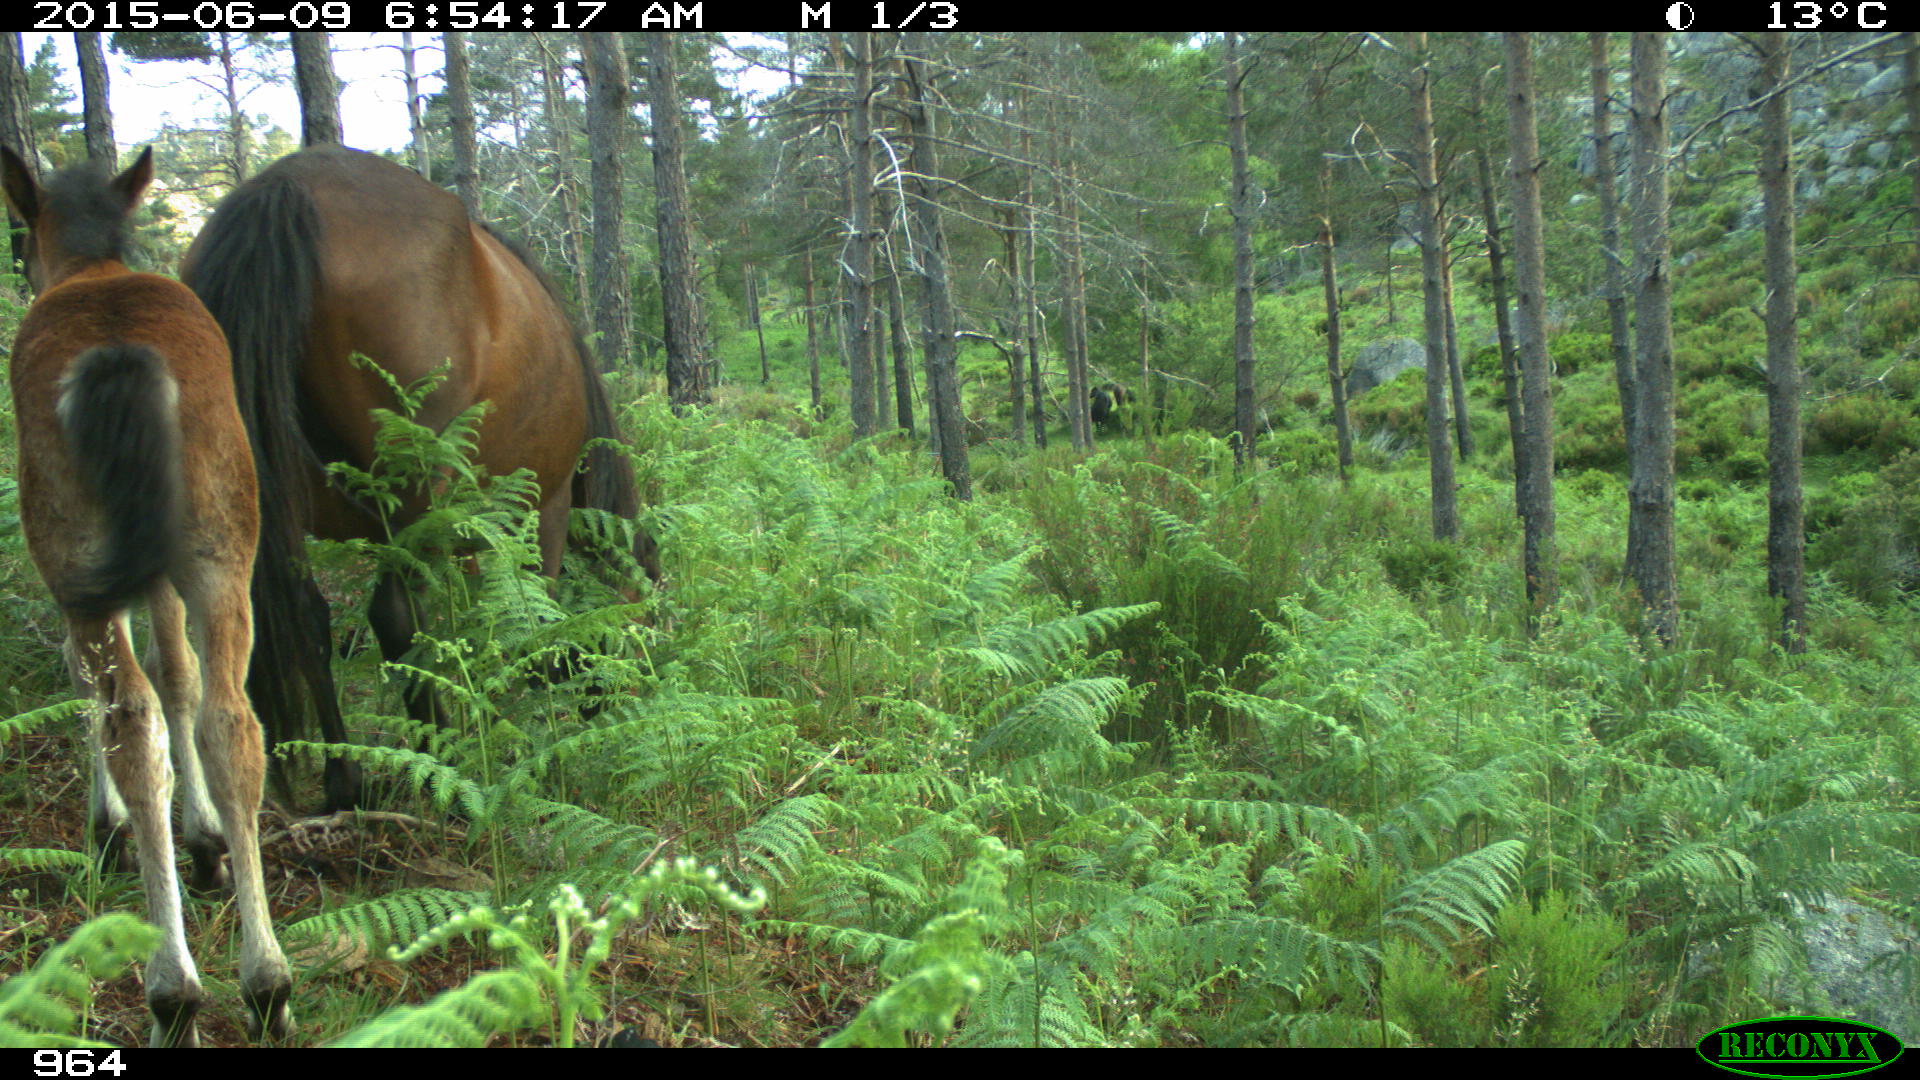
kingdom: Animalia
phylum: Chordata
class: Mammalia
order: Perissodactyla
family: Equidae
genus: Equus
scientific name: Equus caballus
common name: Horse
